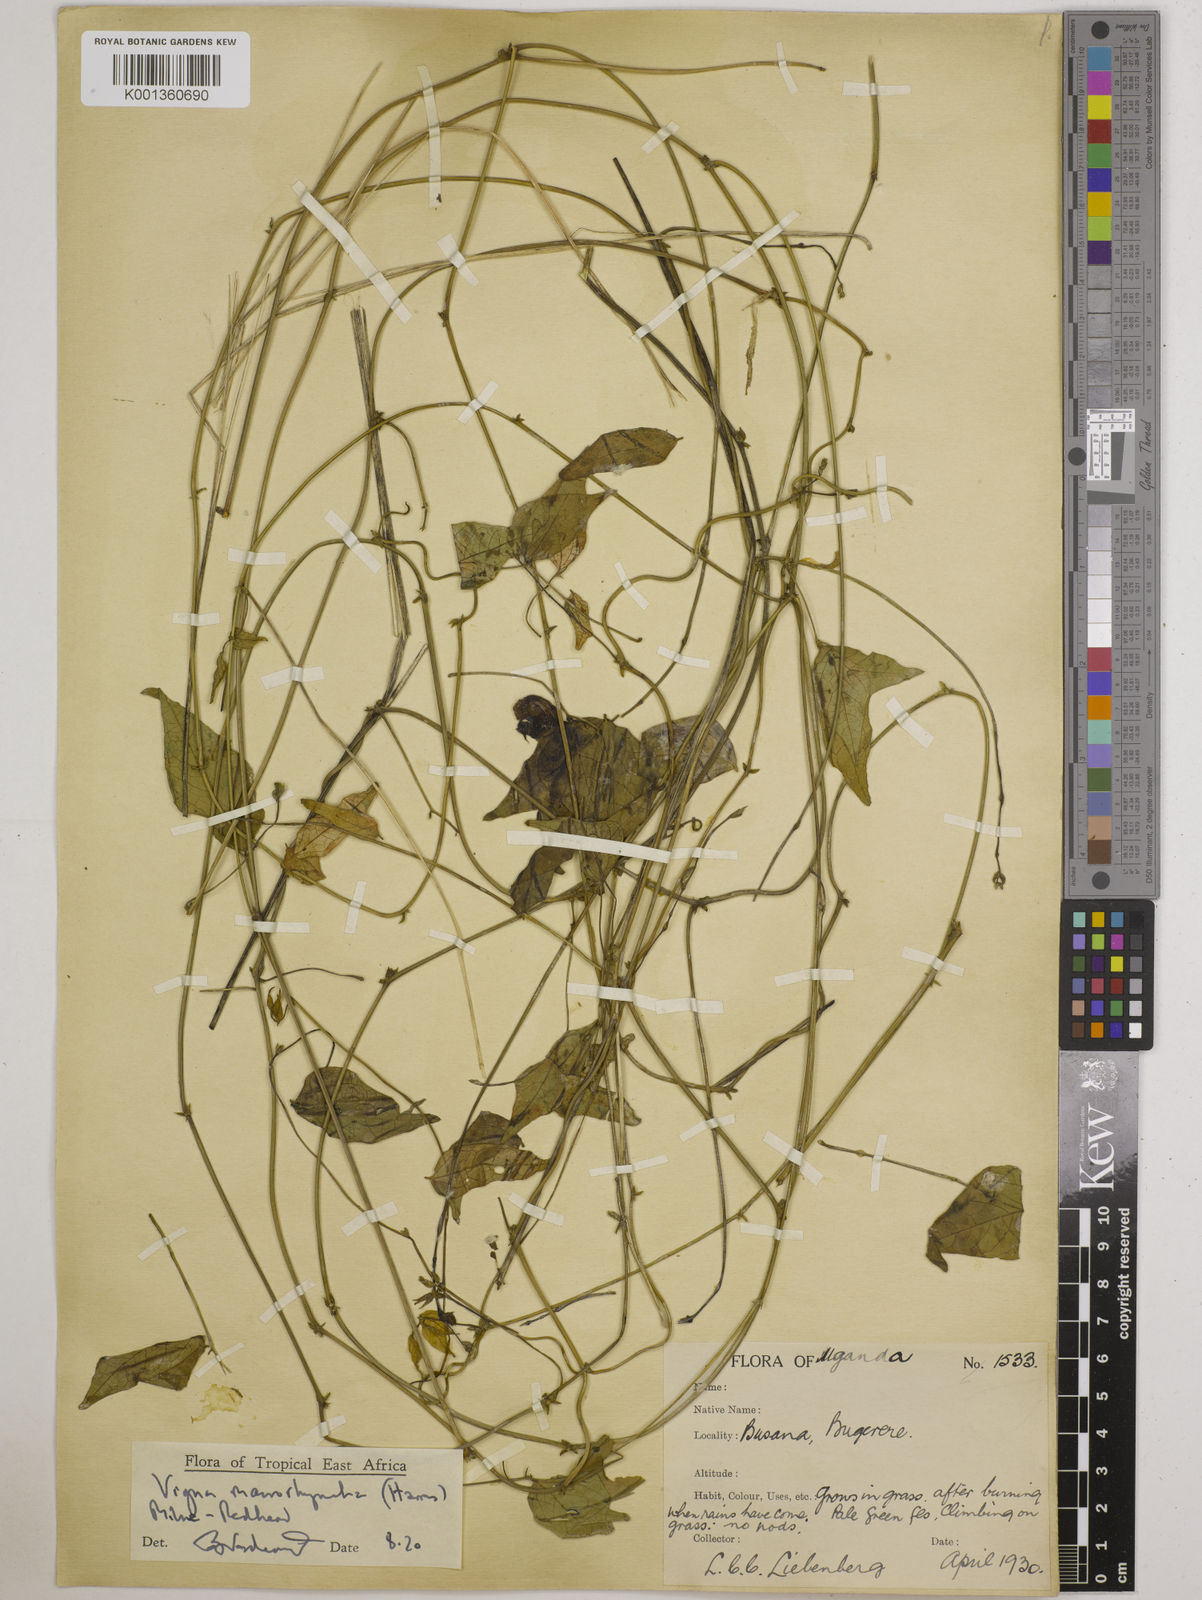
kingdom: Plantae
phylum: Tracheophyta
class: Magnoliopsida
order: Fabales
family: Fabaceae
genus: Wajira
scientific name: Wajira grahamiana
